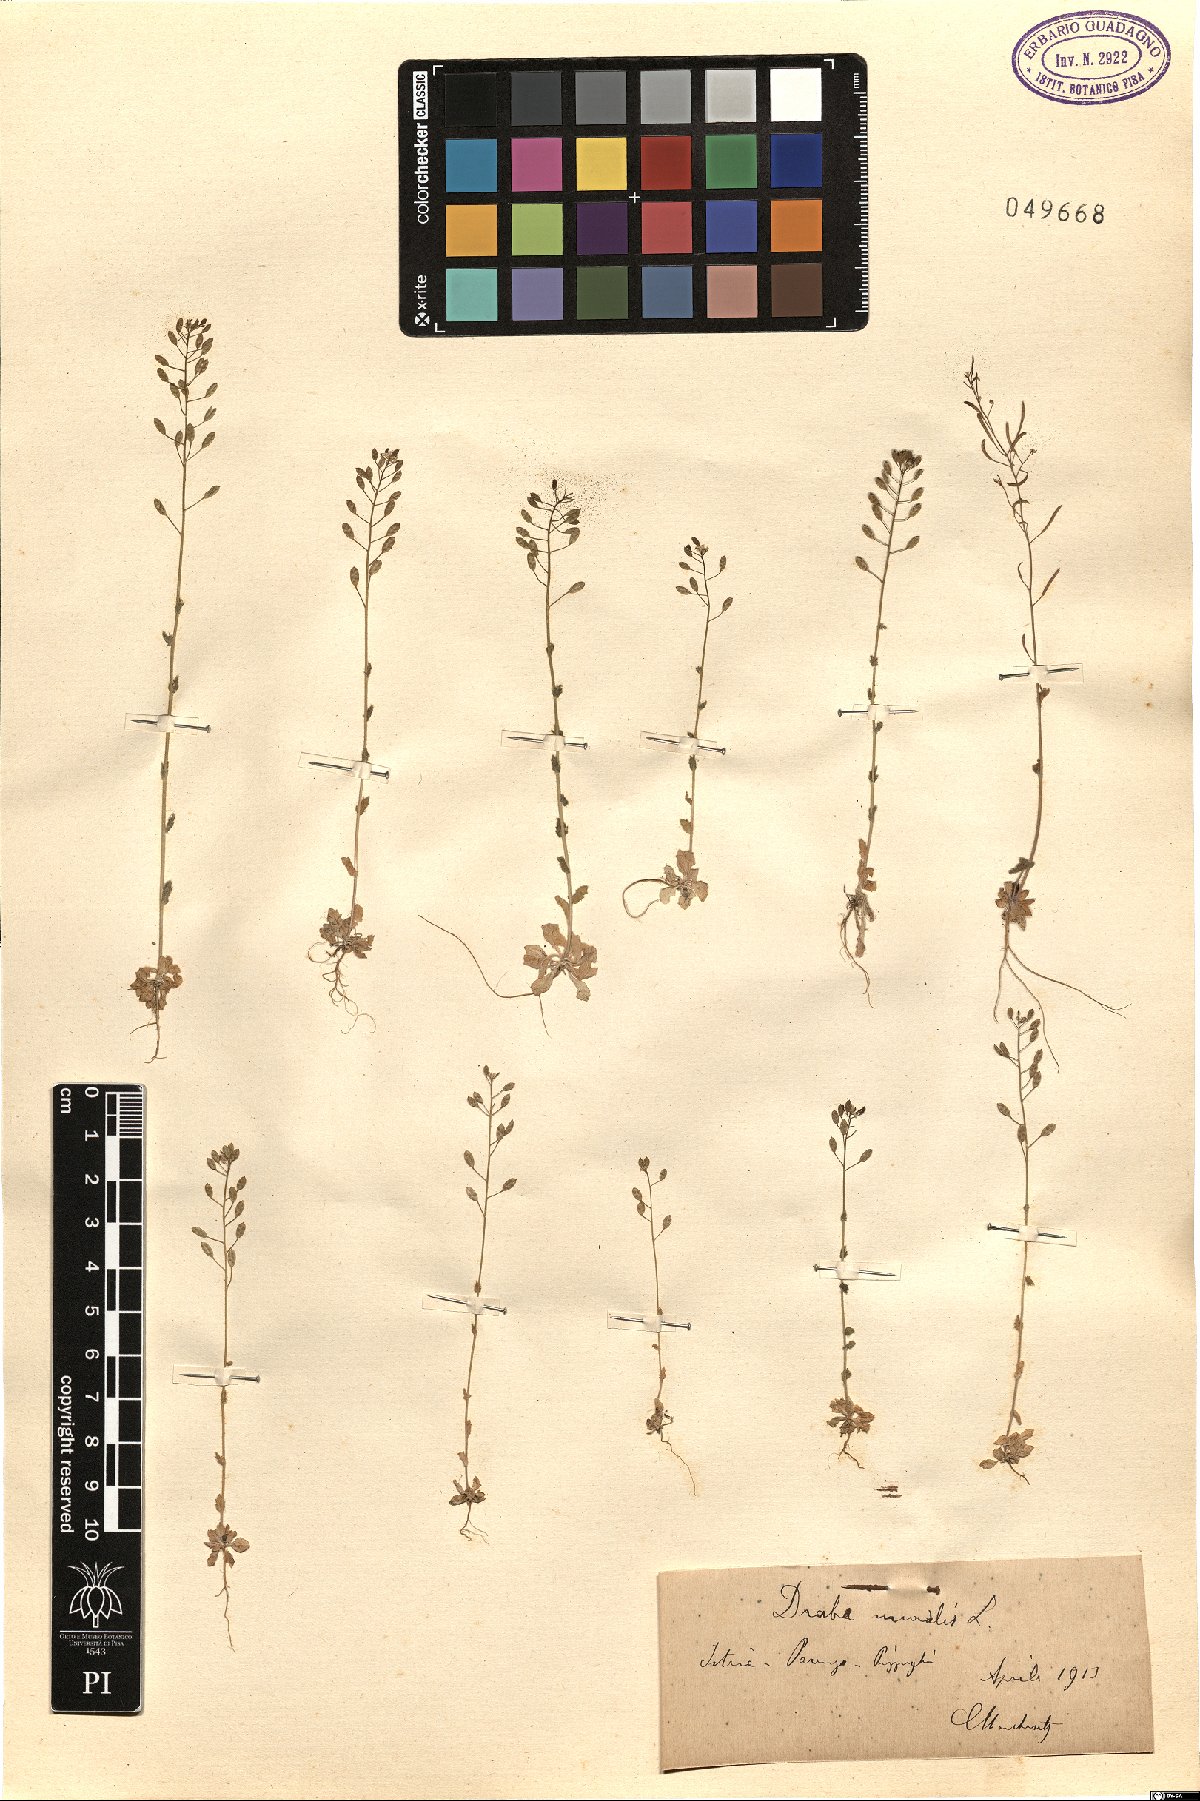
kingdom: Plantae
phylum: Tracheophyta
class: Magnoliopsida
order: Brassicales
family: Brassicaceae
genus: Drabella
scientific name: Drabella muralis
